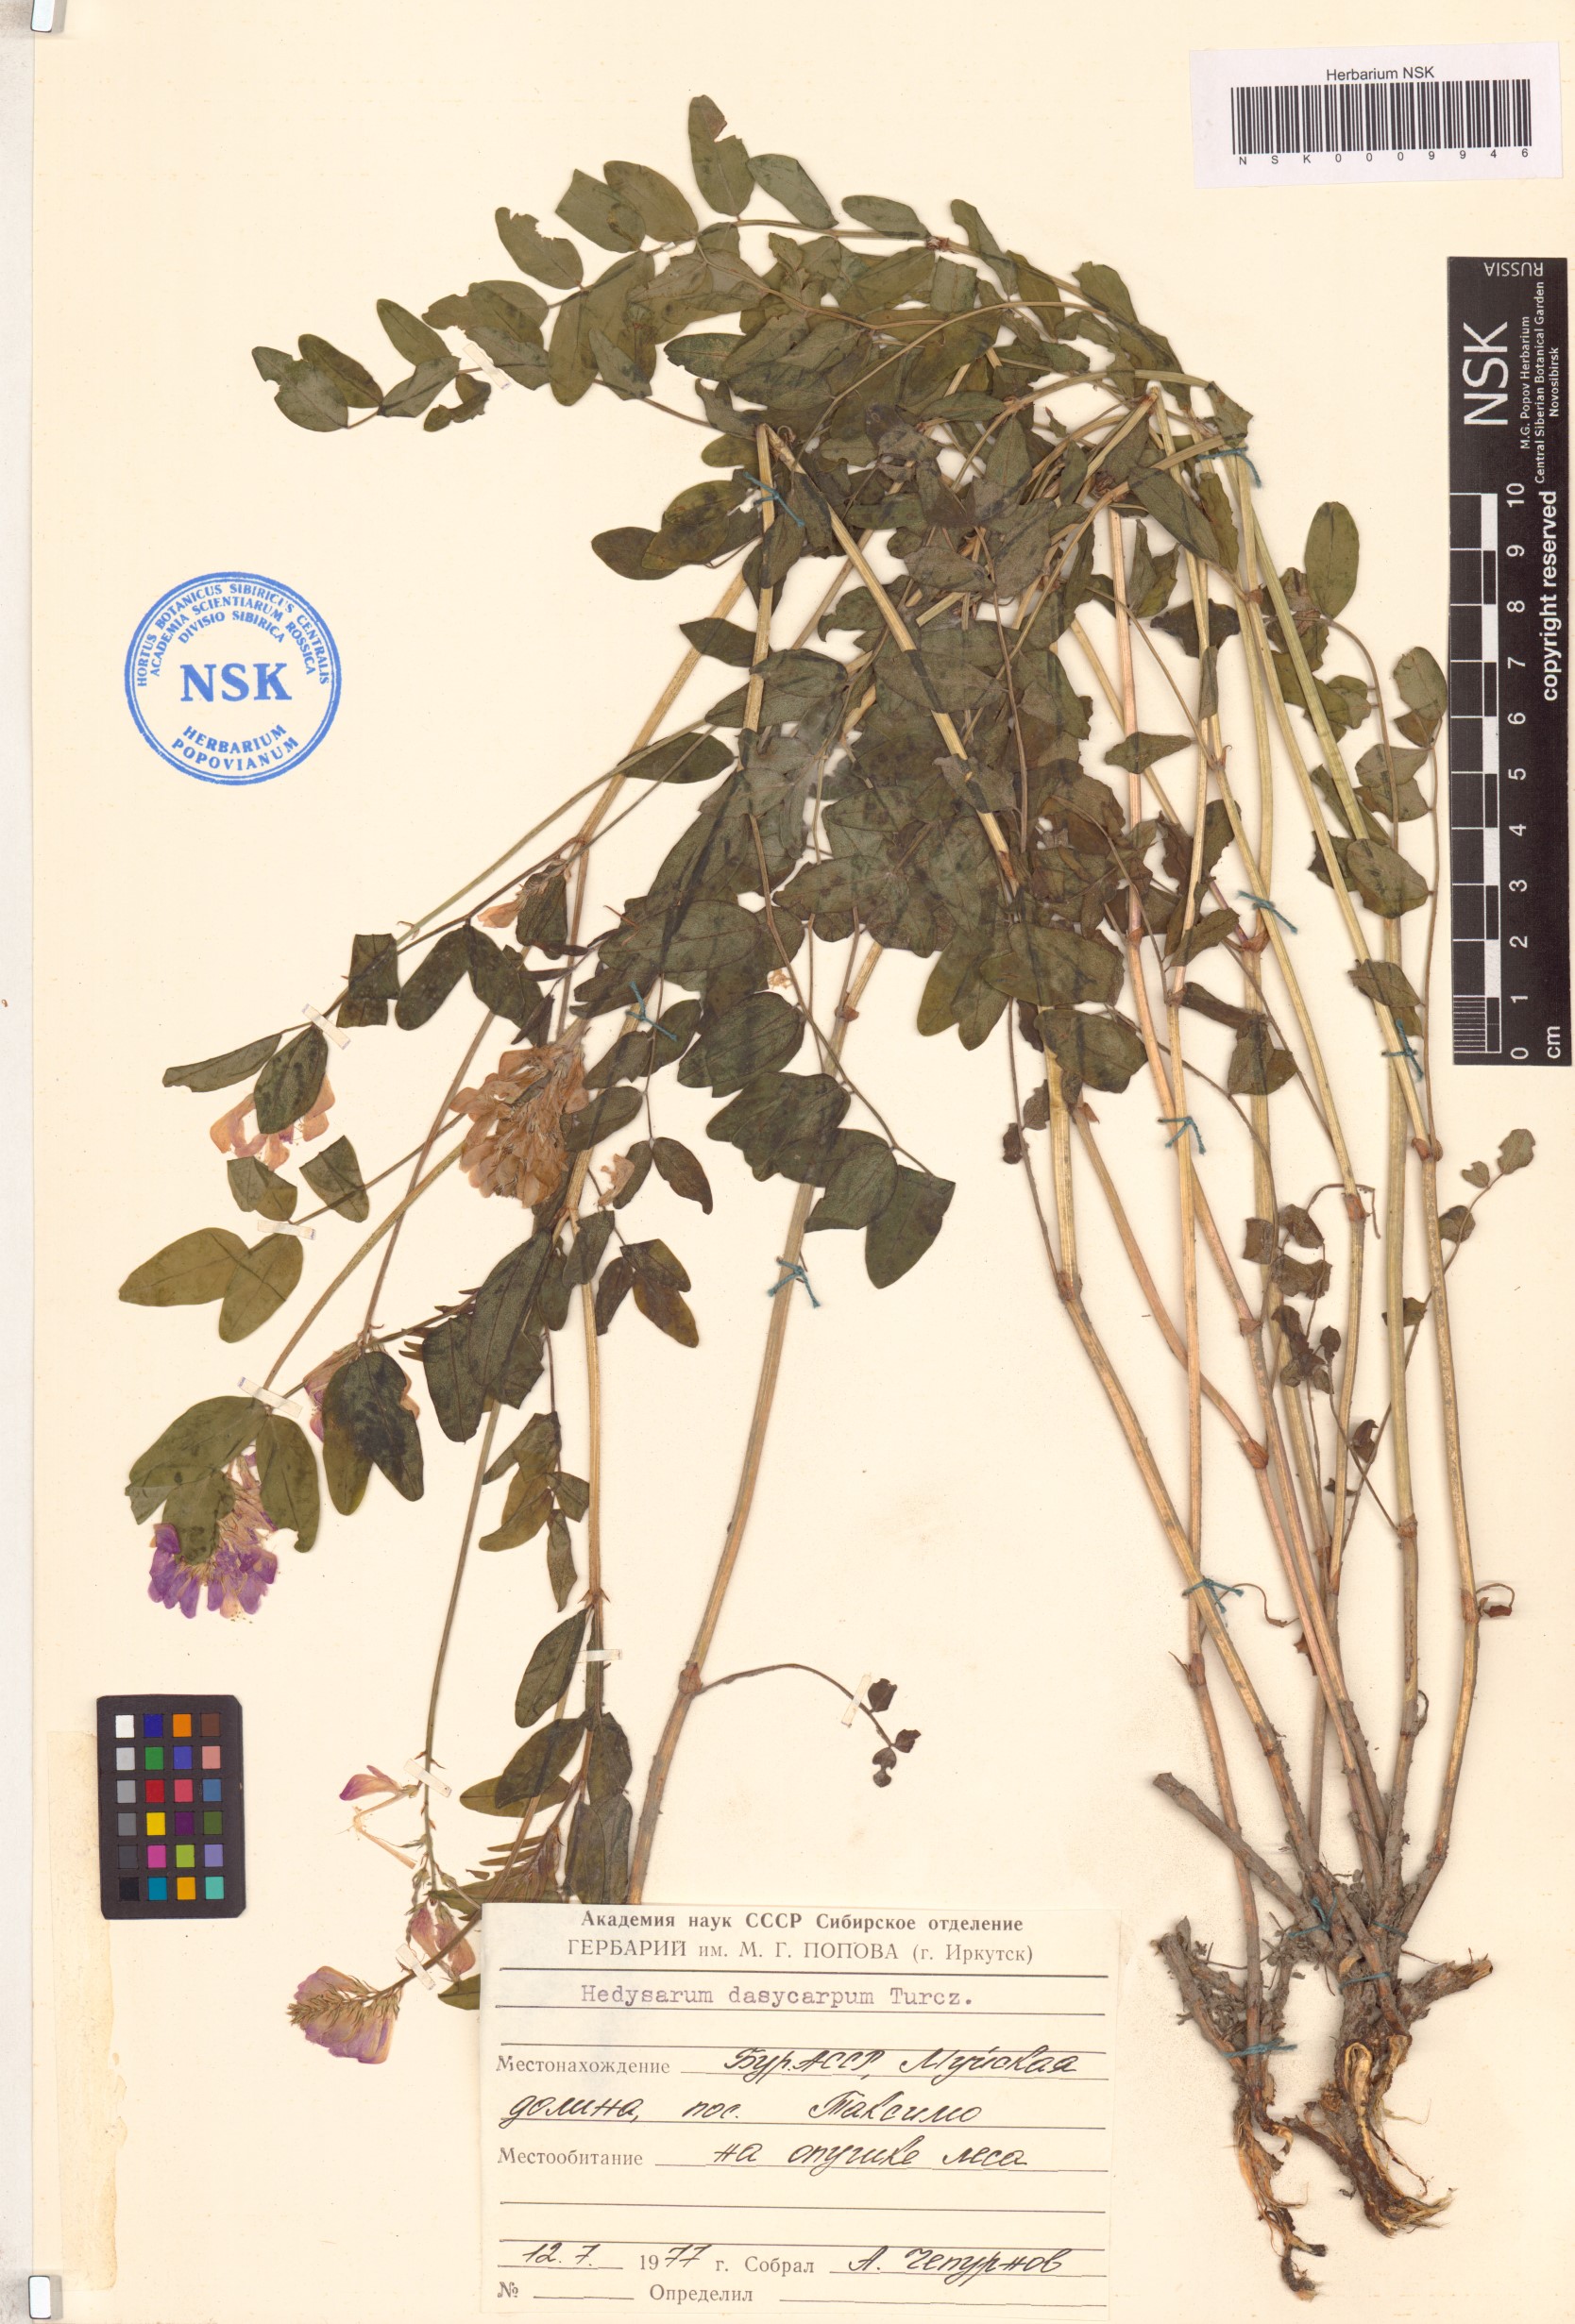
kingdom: Plantae
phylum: Tracheophyta
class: Magnoliopsida
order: Fabales
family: Fabaceae
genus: Hedysarum
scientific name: Hedysarum dasycarpum
